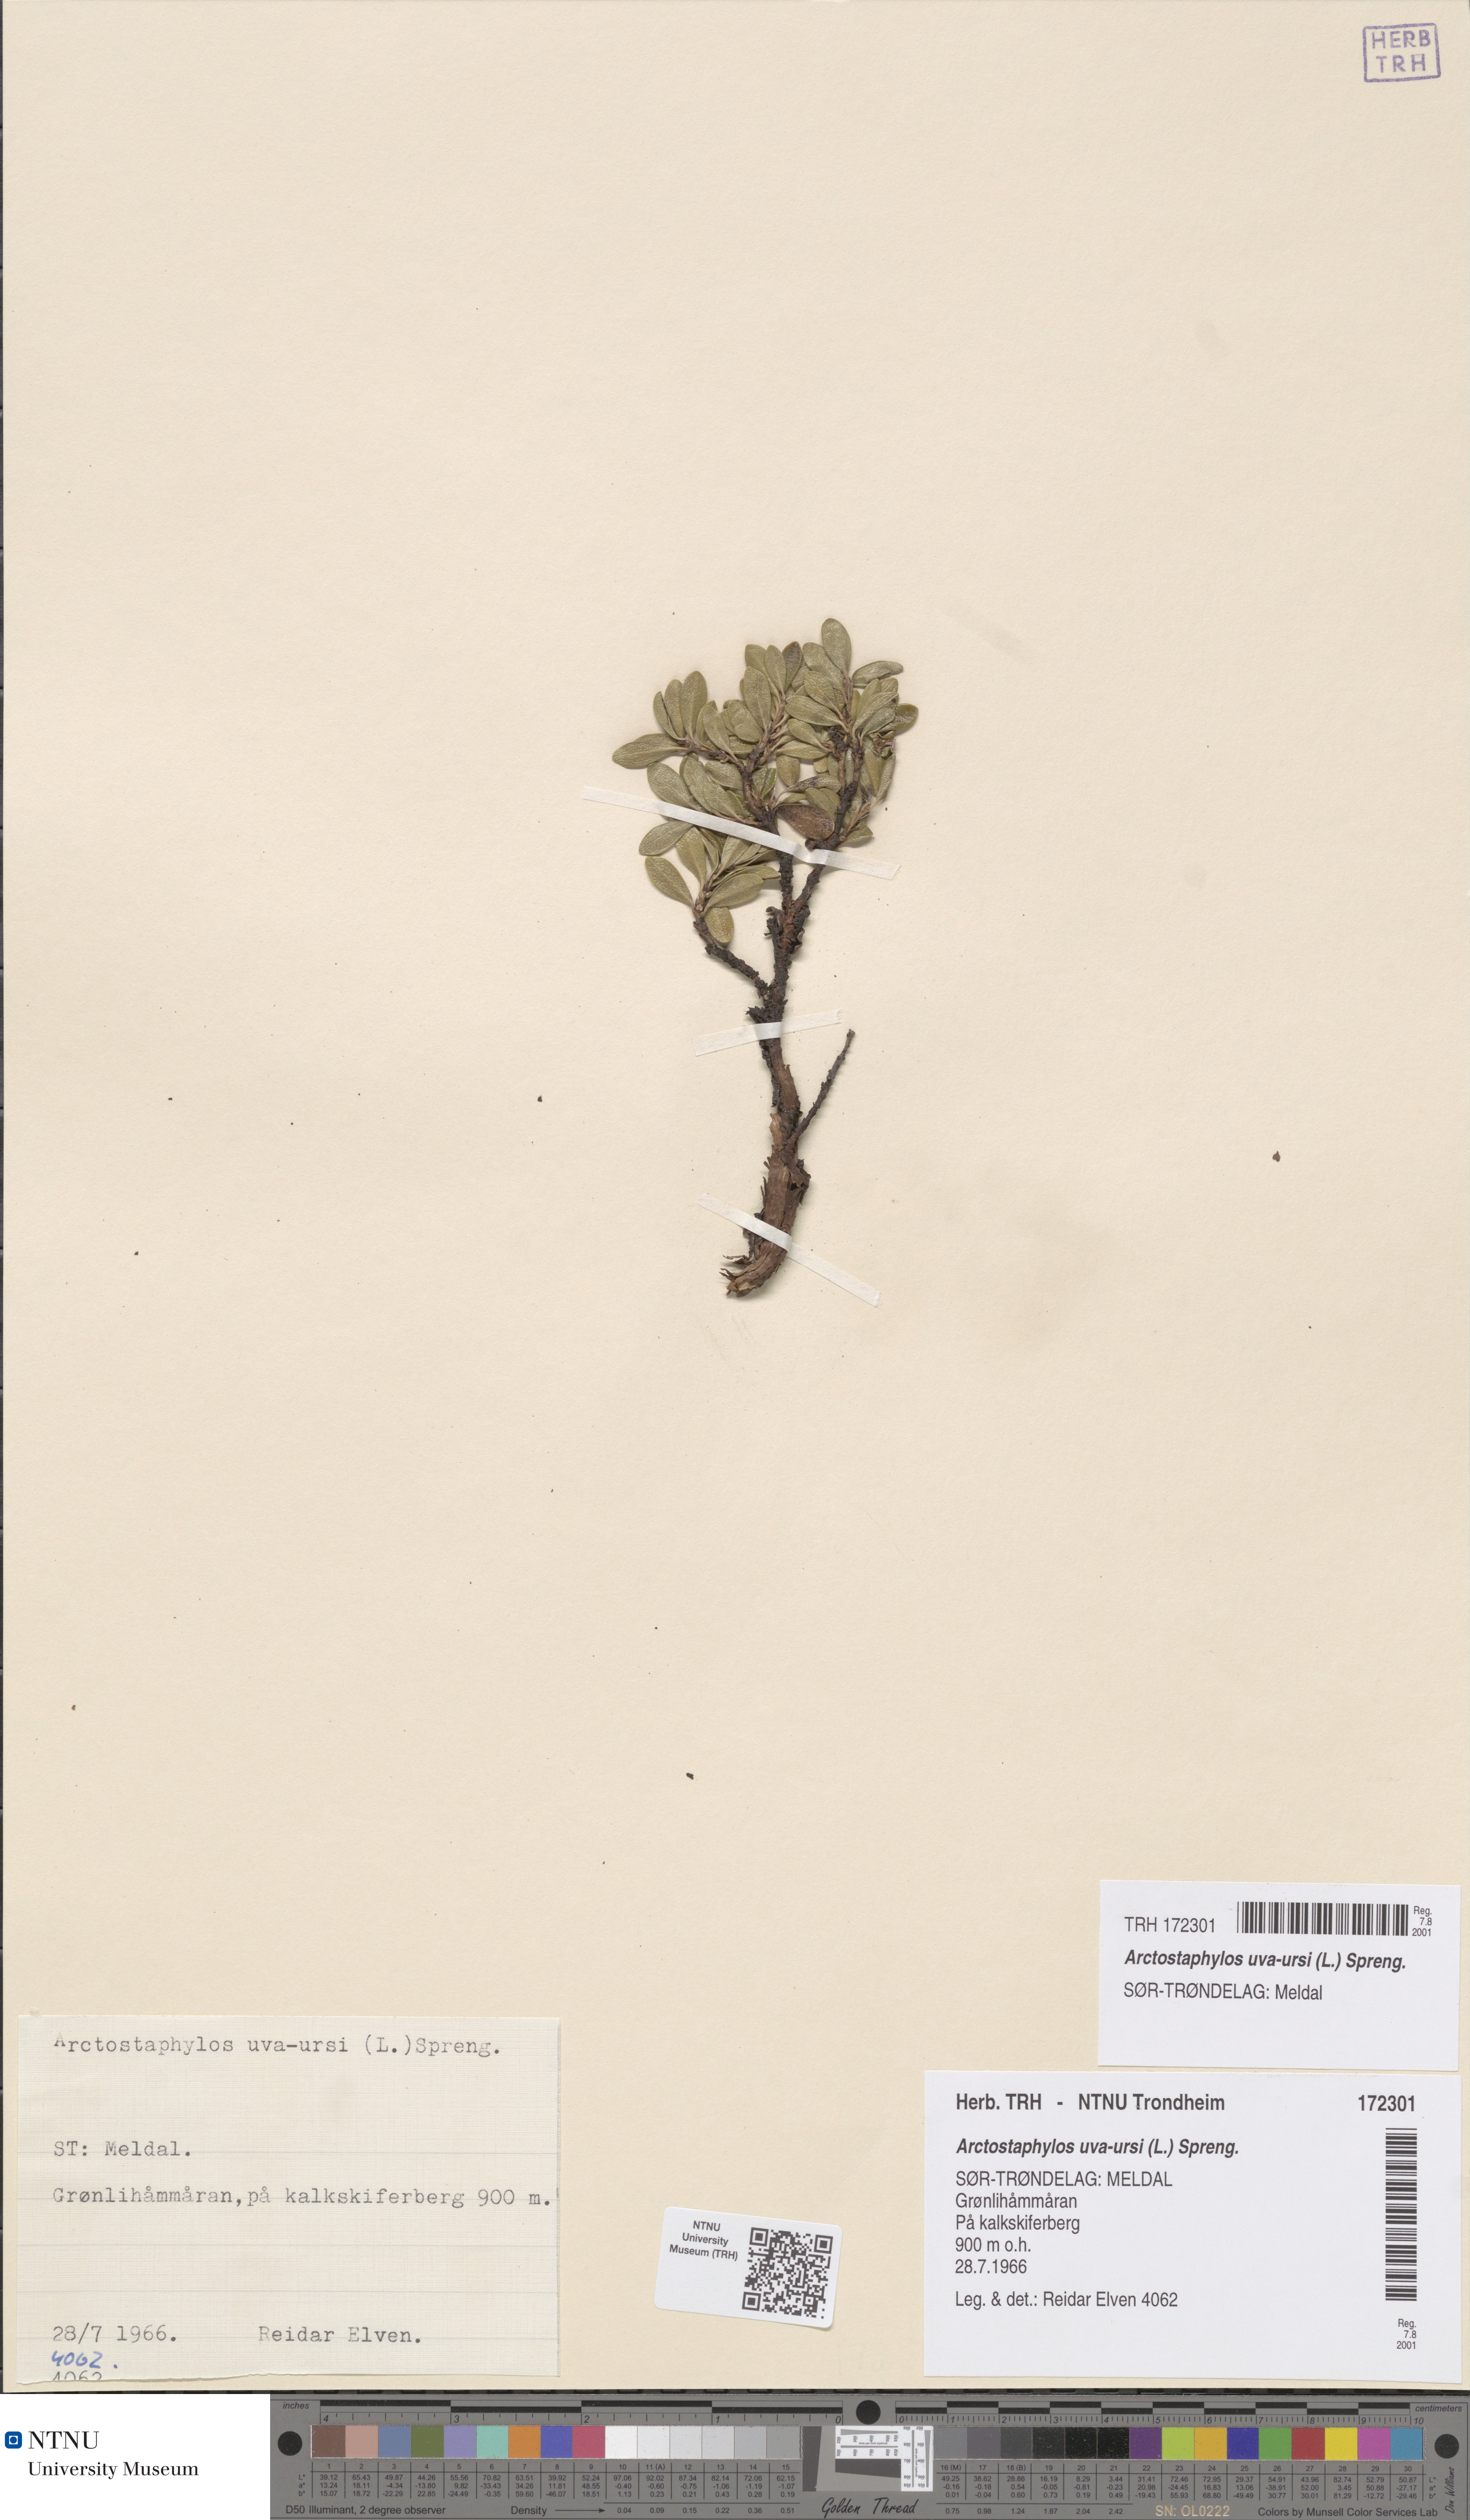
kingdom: Plantae
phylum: Tracheophyta
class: Magnoliopsida
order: Ericales
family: Ericaceae
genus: Arctostaphylos
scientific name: Arctostaphylos uva-ursi
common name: Bearberry
